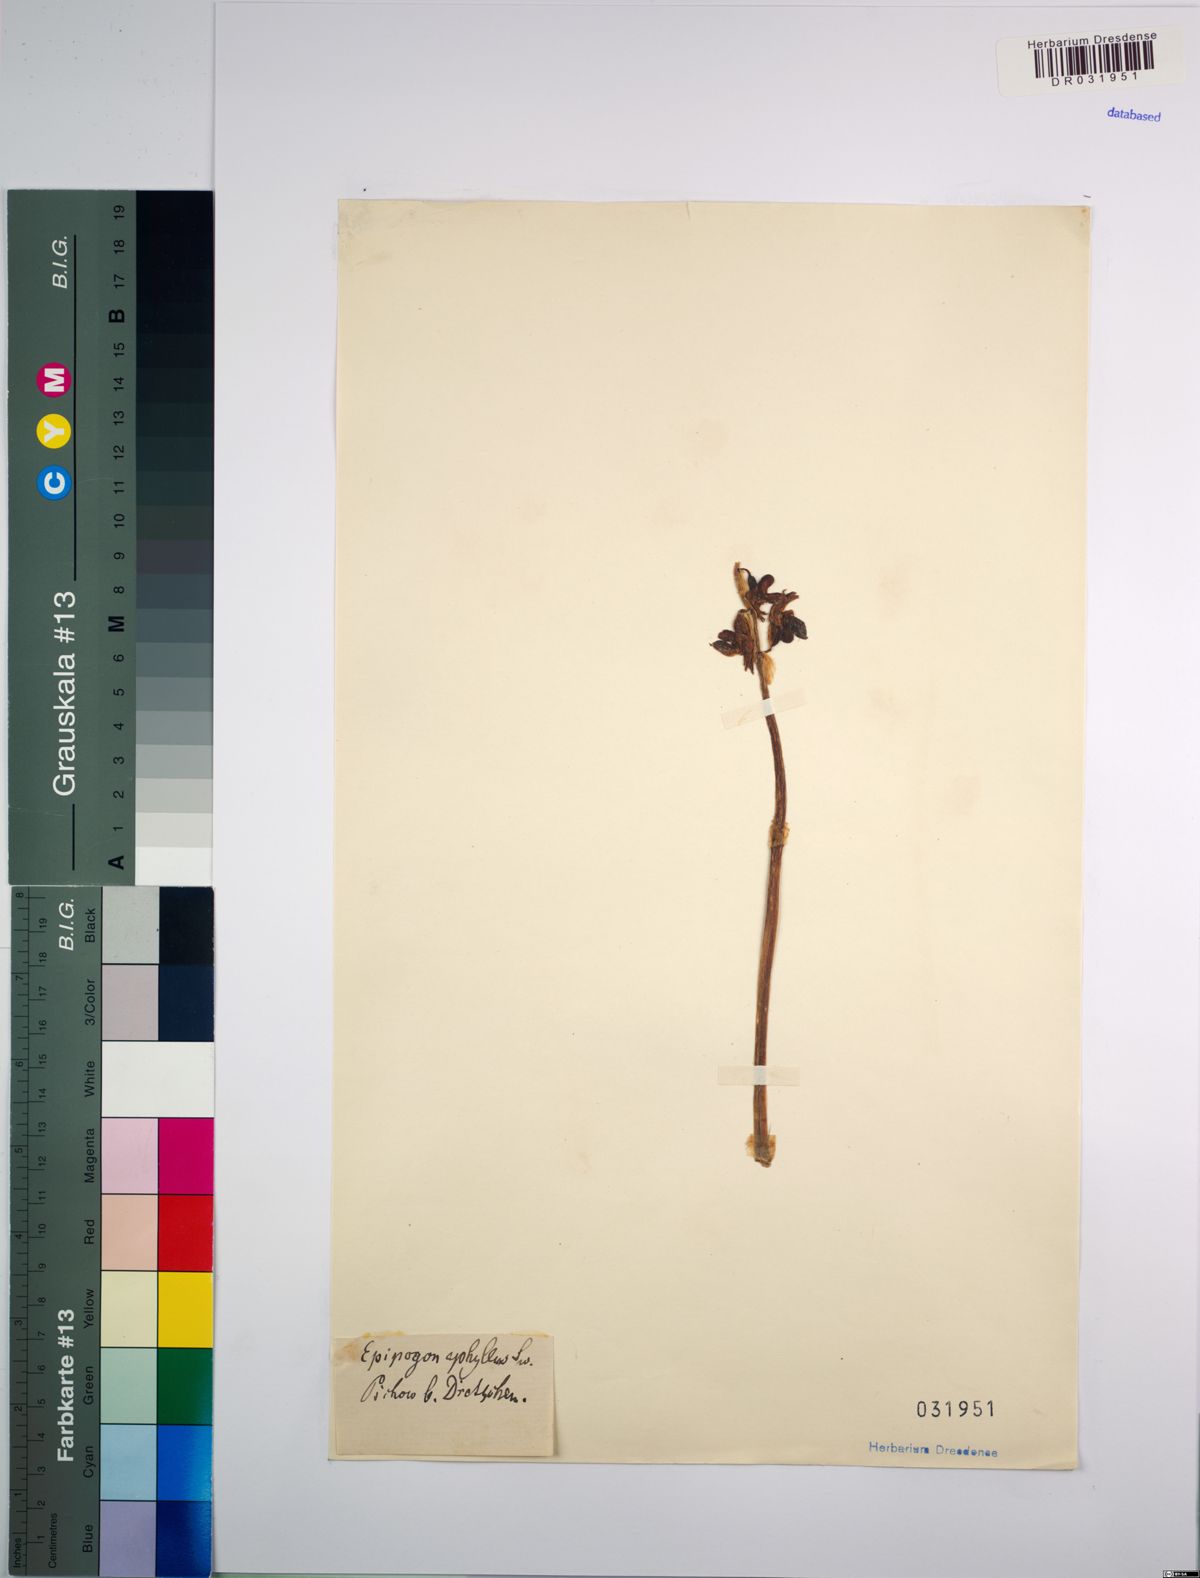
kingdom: Plantae
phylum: Tracheophyta
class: Liliopsida
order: Asparagales
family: Orchidaceae
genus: Epipogium
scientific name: Epipogium aphyllum
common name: Ghost orchid
